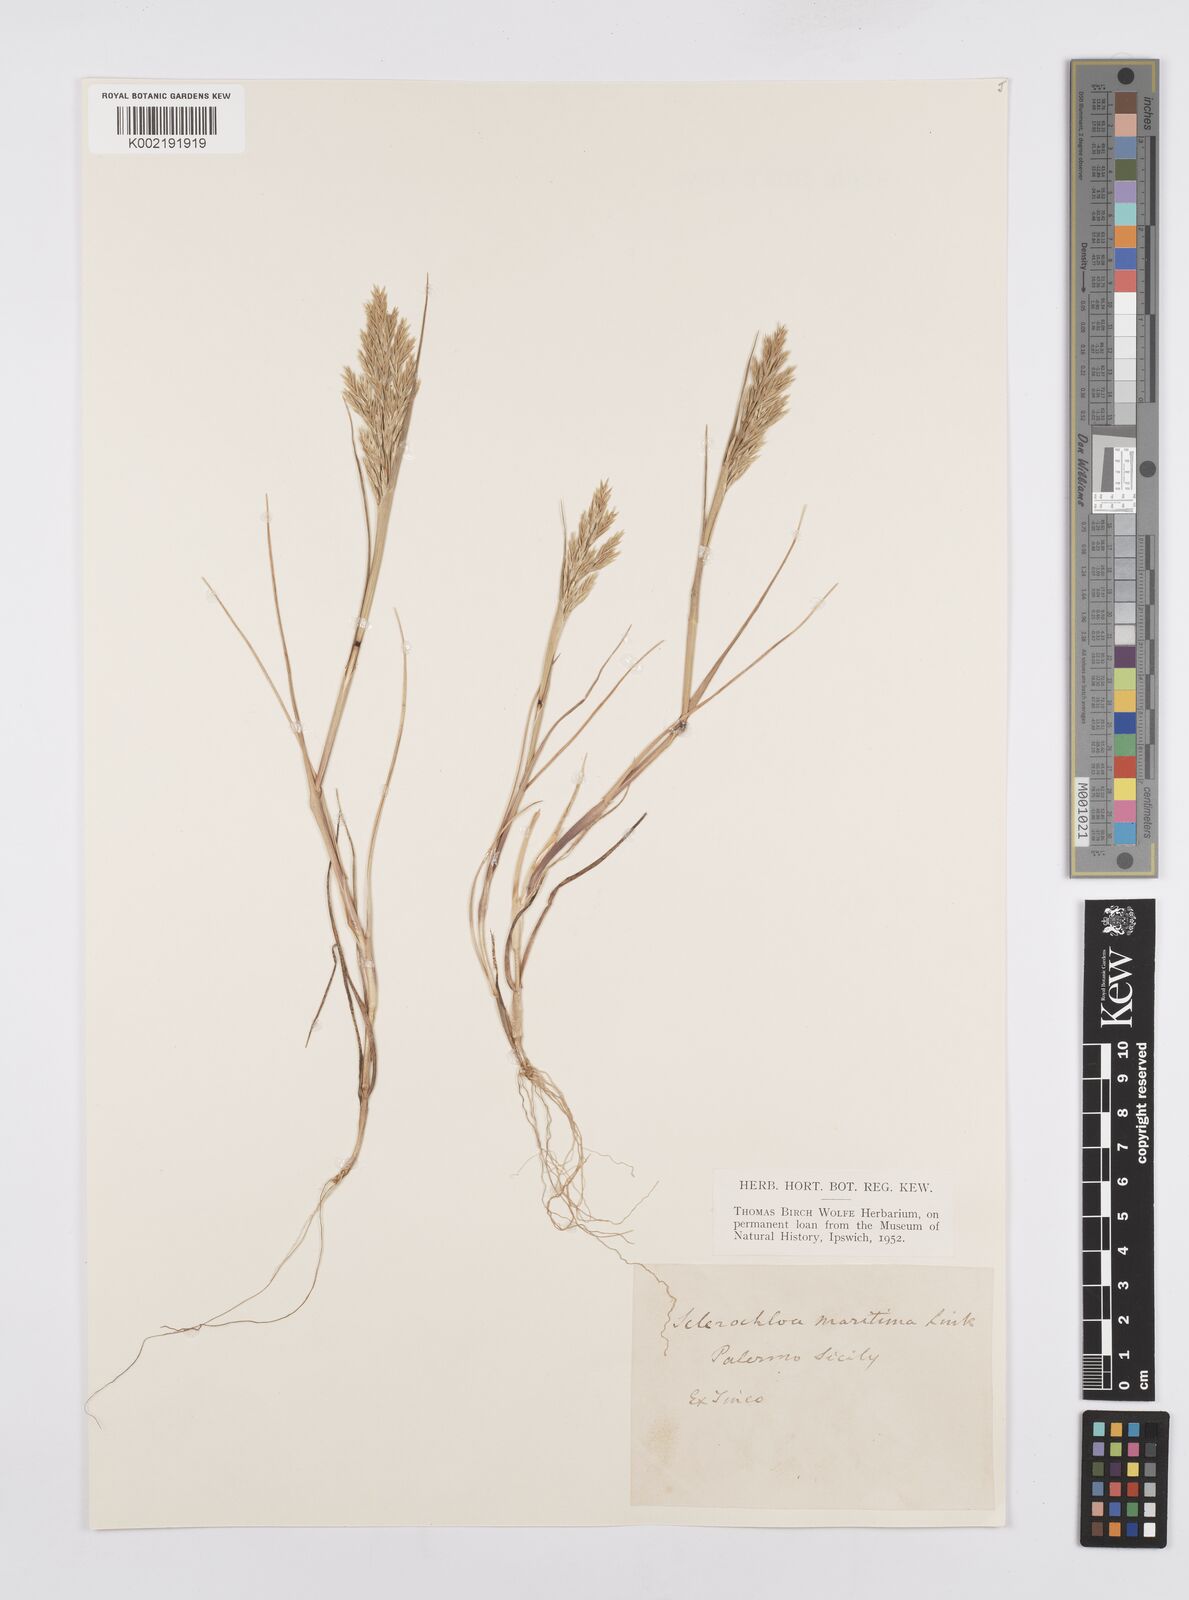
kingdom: Plantae
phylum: Tracheophyta
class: Liliopsida
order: Poales
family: Poaceae
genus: Cutandia
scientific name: Cutandia maritima
